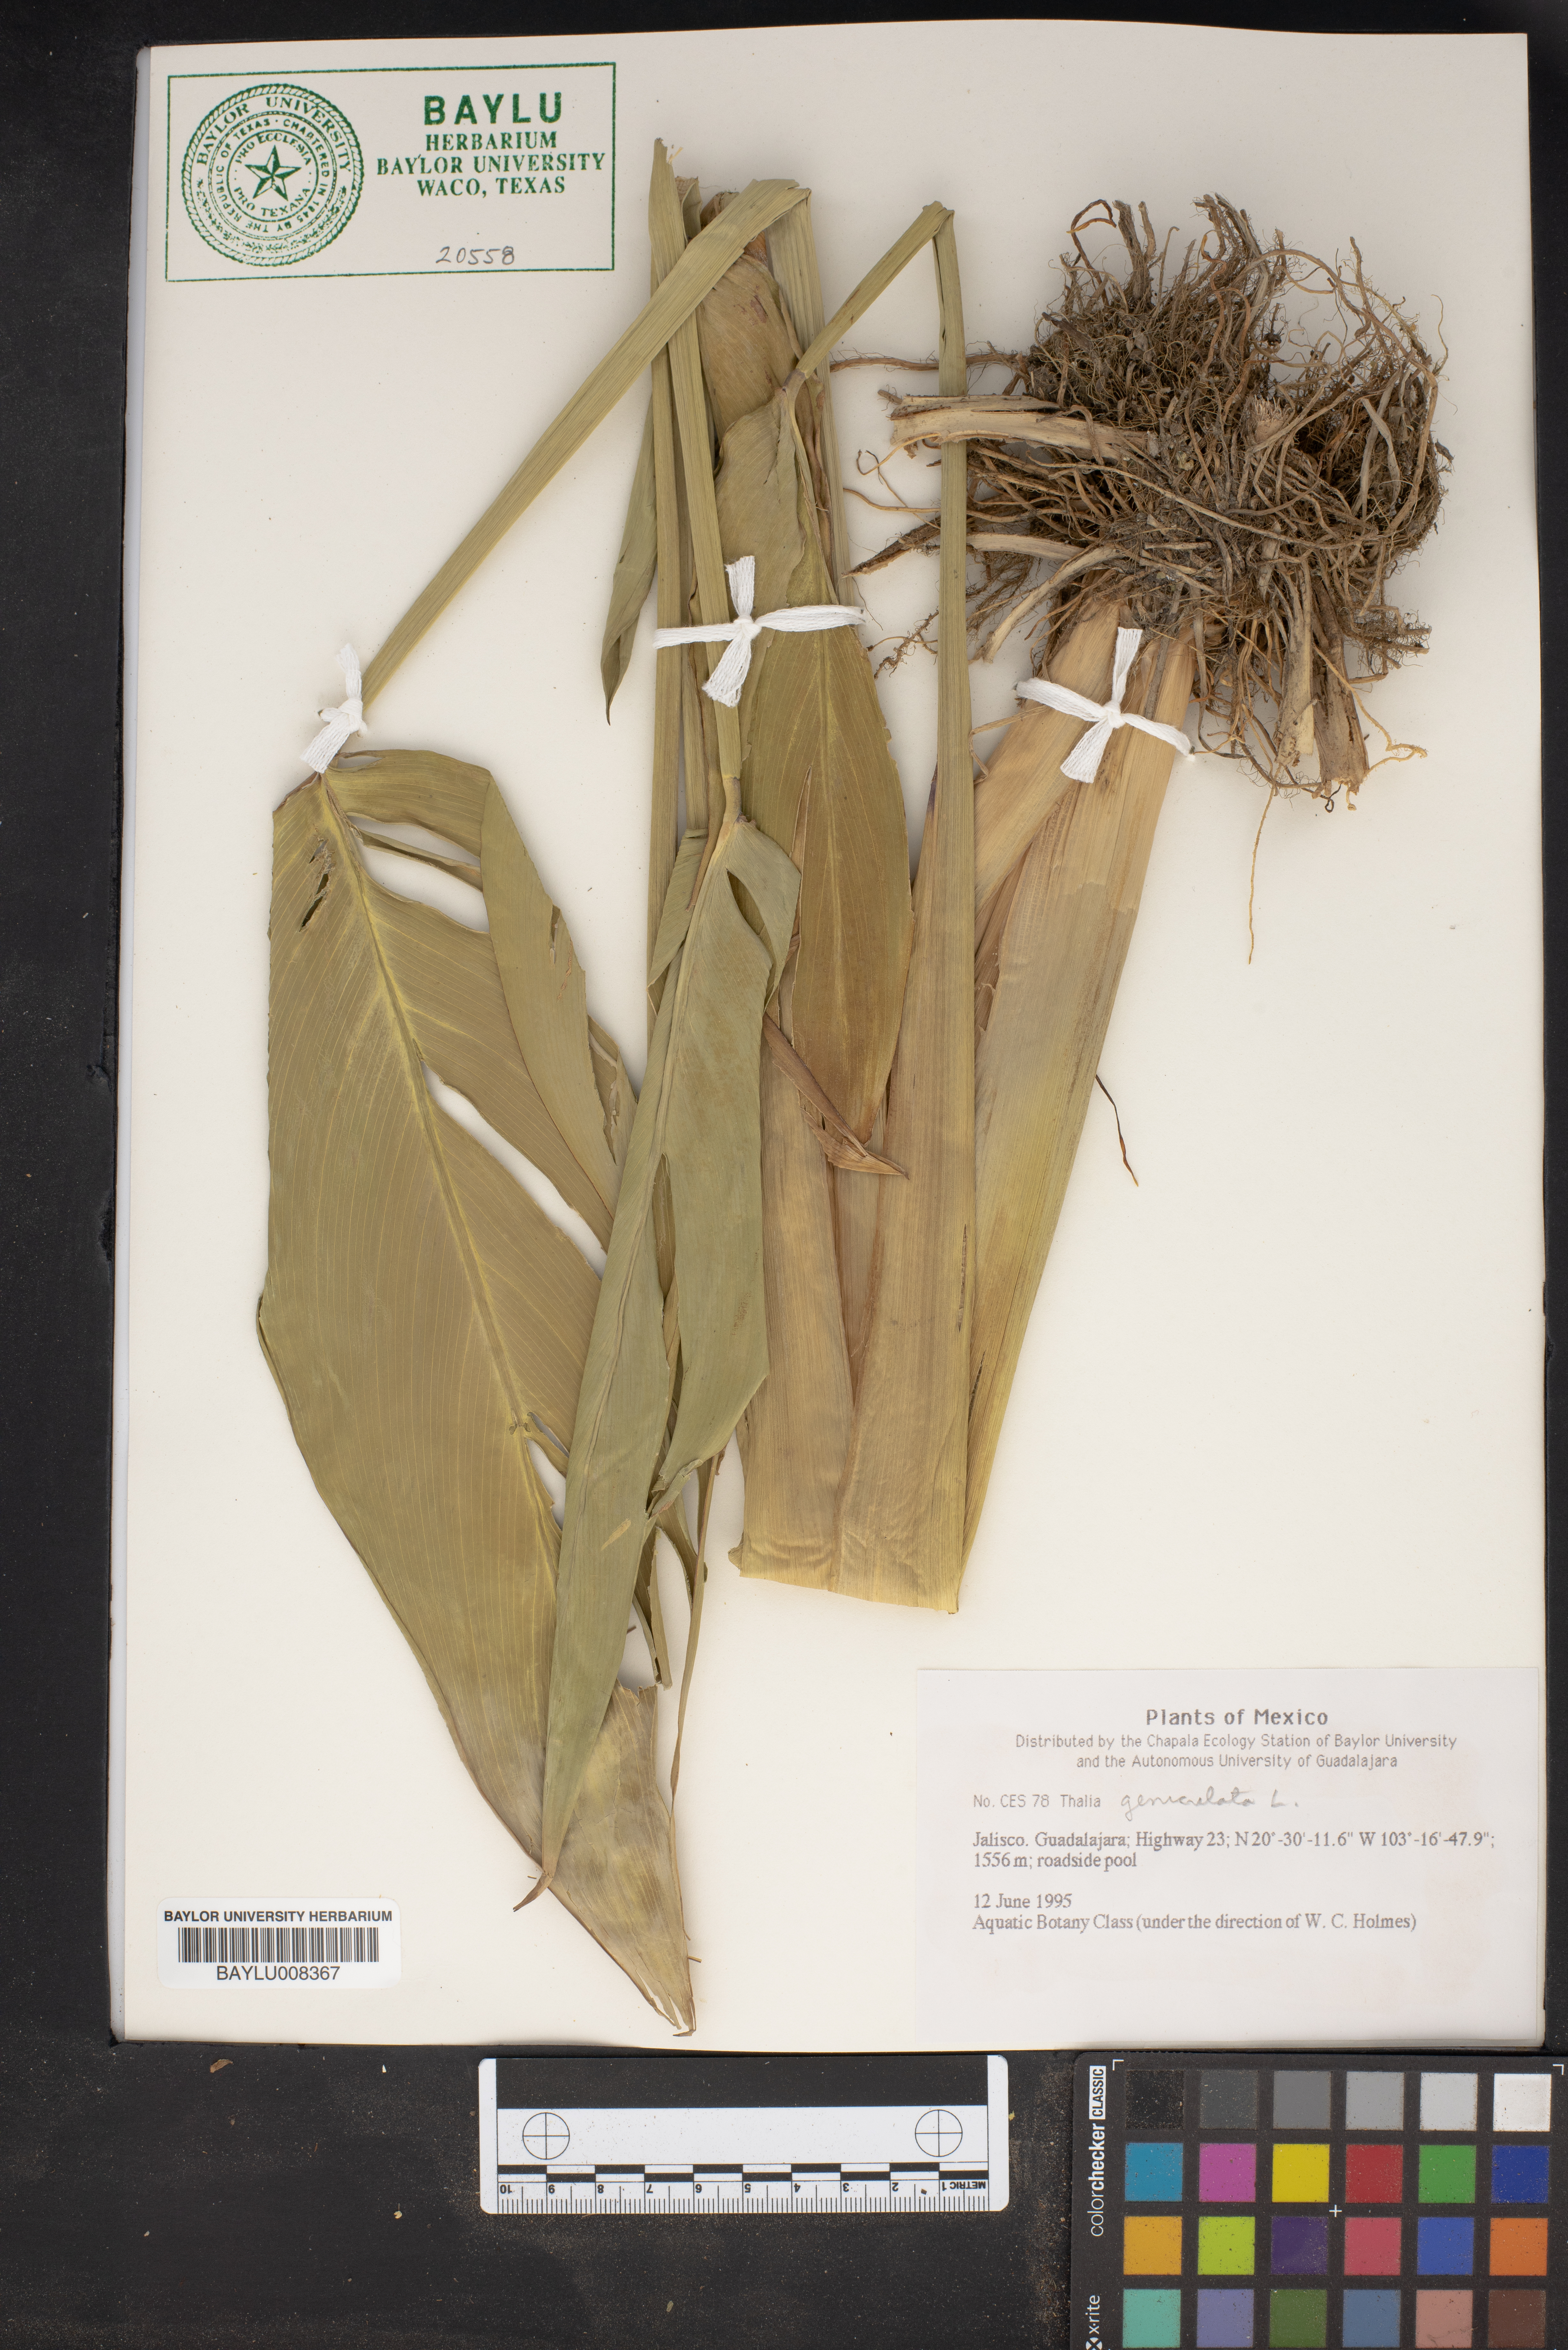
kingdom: Plantae
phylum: Tracheophyta
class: Liliopsida
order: Zingiberales
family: Marantaceae
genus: Thalia
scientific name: Thalia geniculata
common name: Arrowroot
